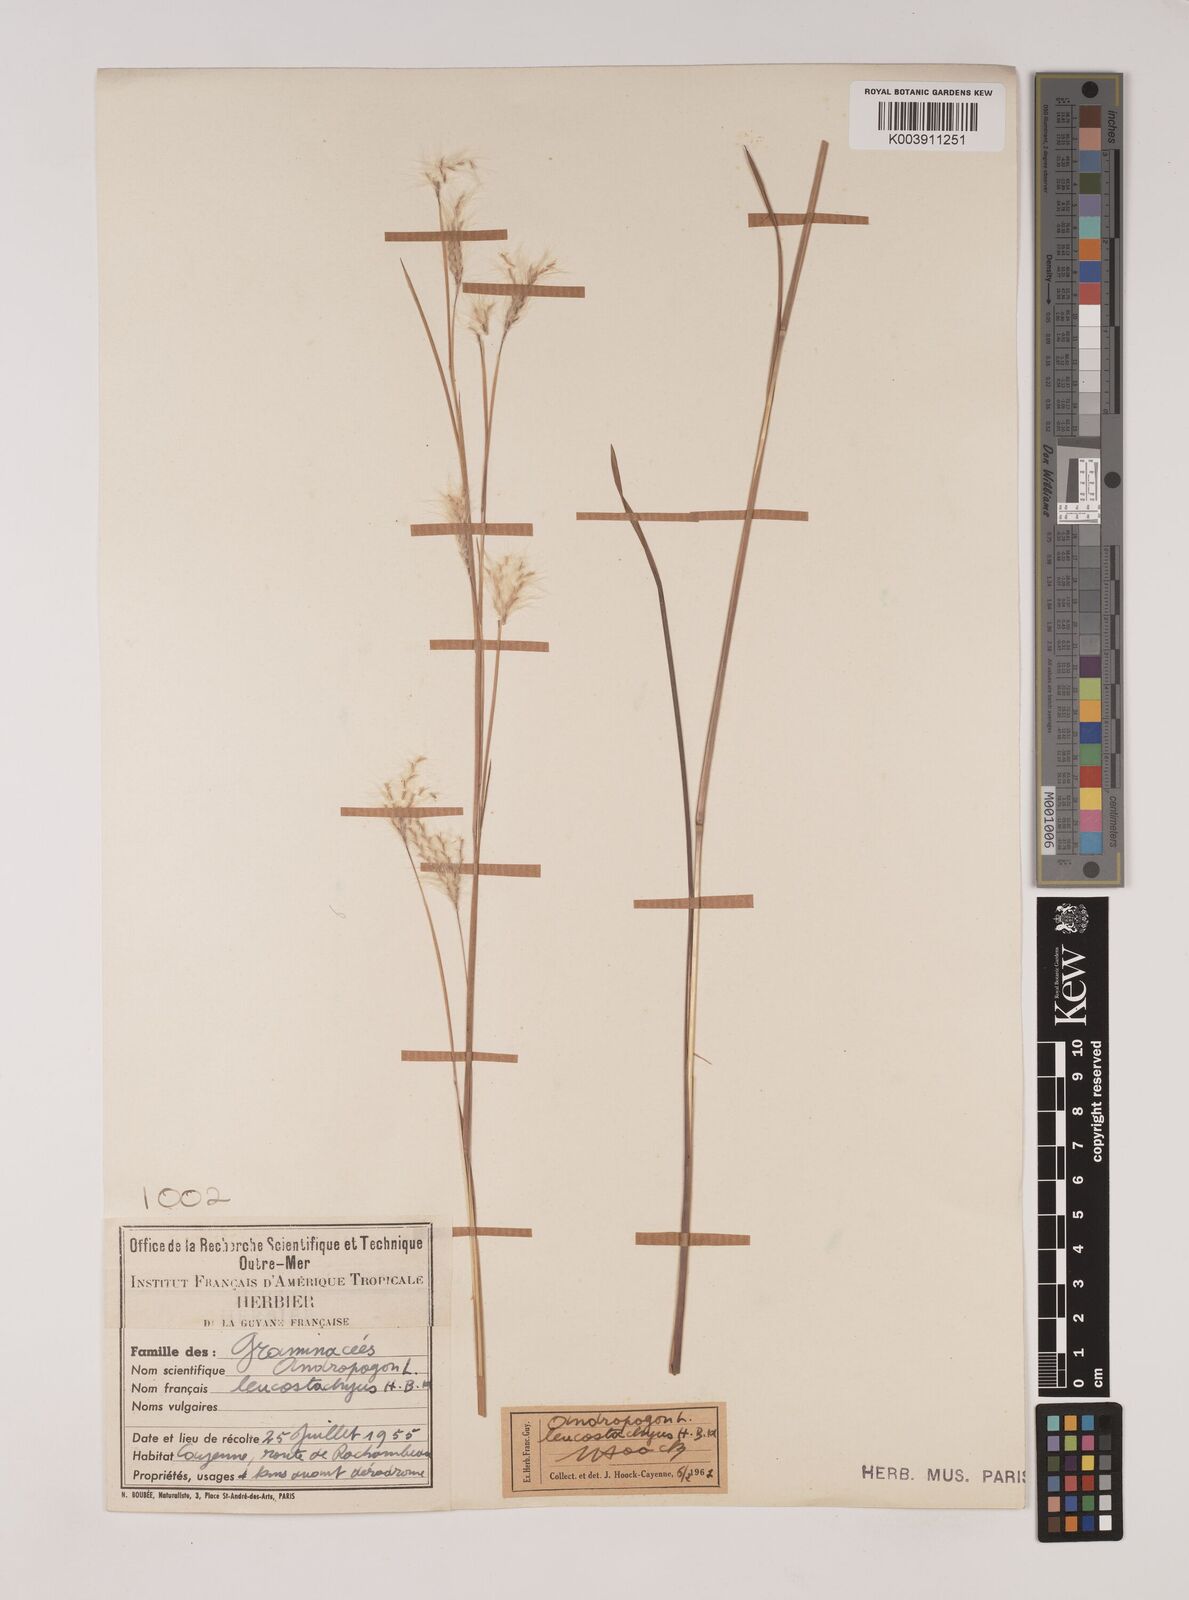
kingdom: Plantae
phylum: Tracheophyta
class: Liliopsida
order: Poales
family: Poaceae
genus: Andropogon
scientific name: Andropogon leucostachyus
